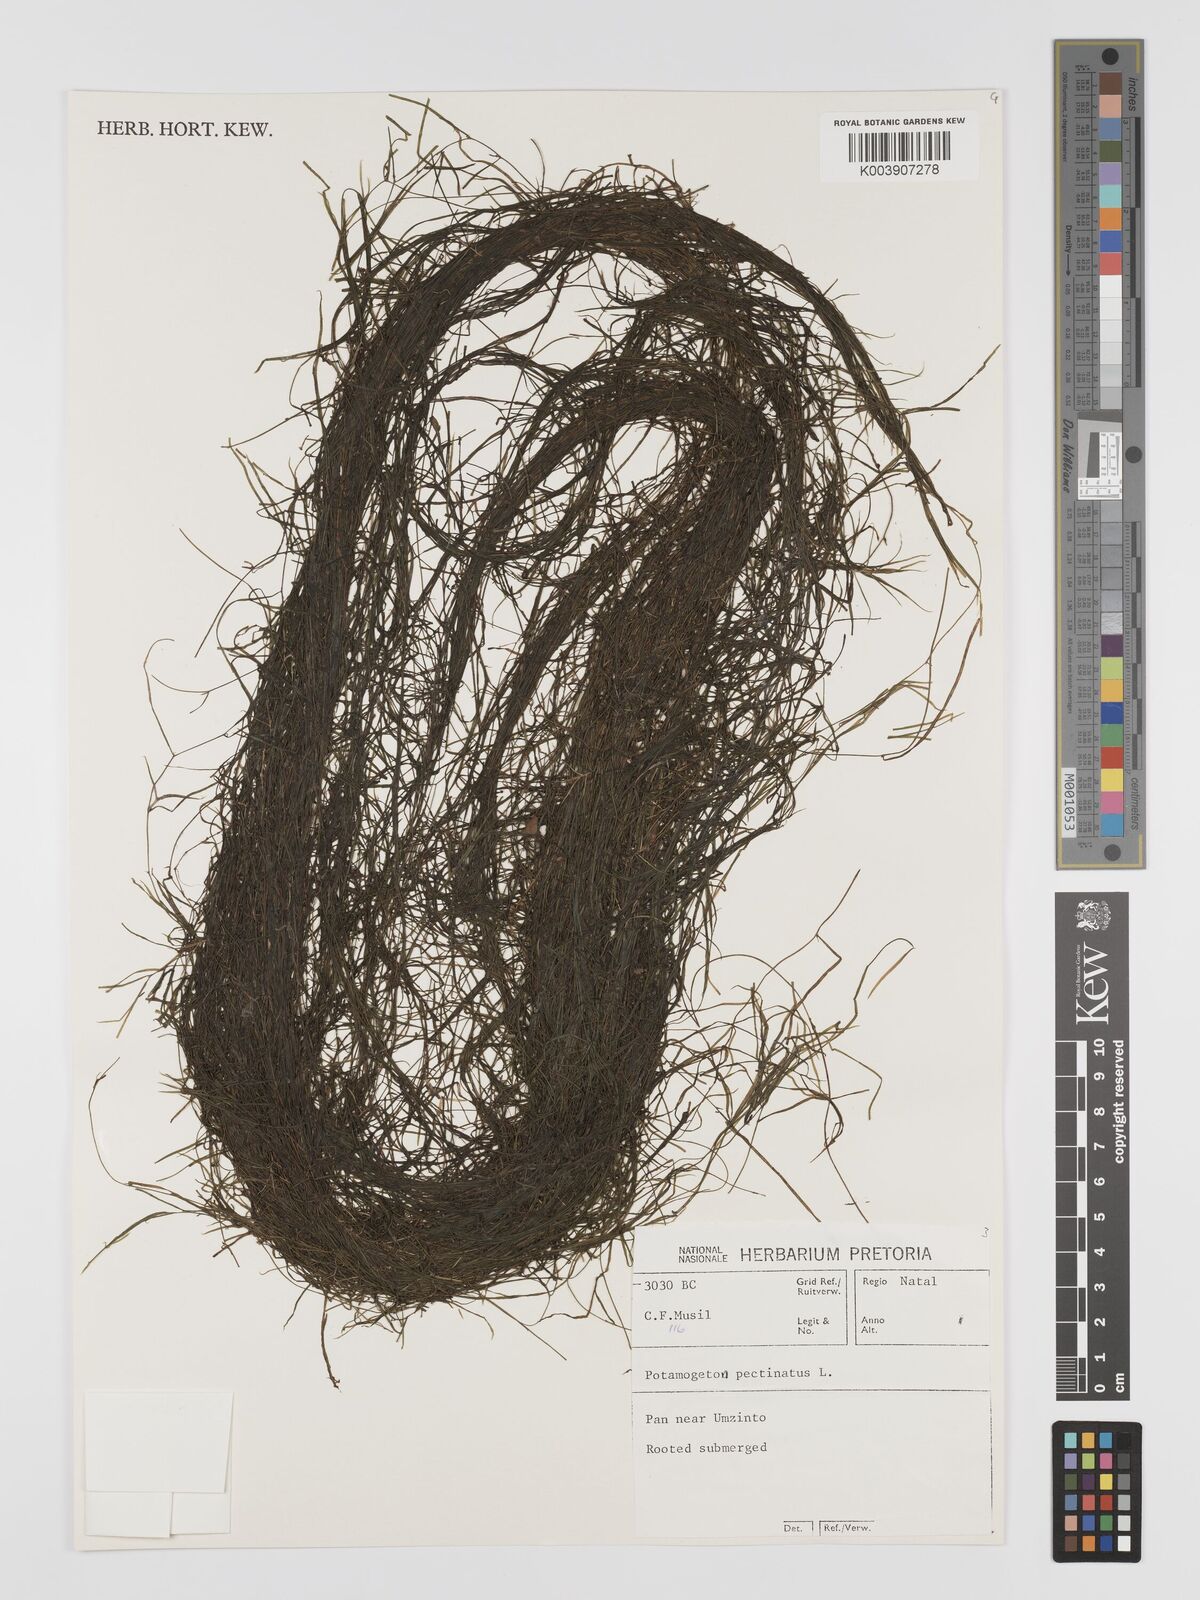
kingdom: Plantae
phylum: Tracheophyta
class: Liliopsida
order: Alismatales
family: Potamogetonaceae
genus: Stuckenia
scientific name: Stuckenia pectinata
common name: Sago pondweed
